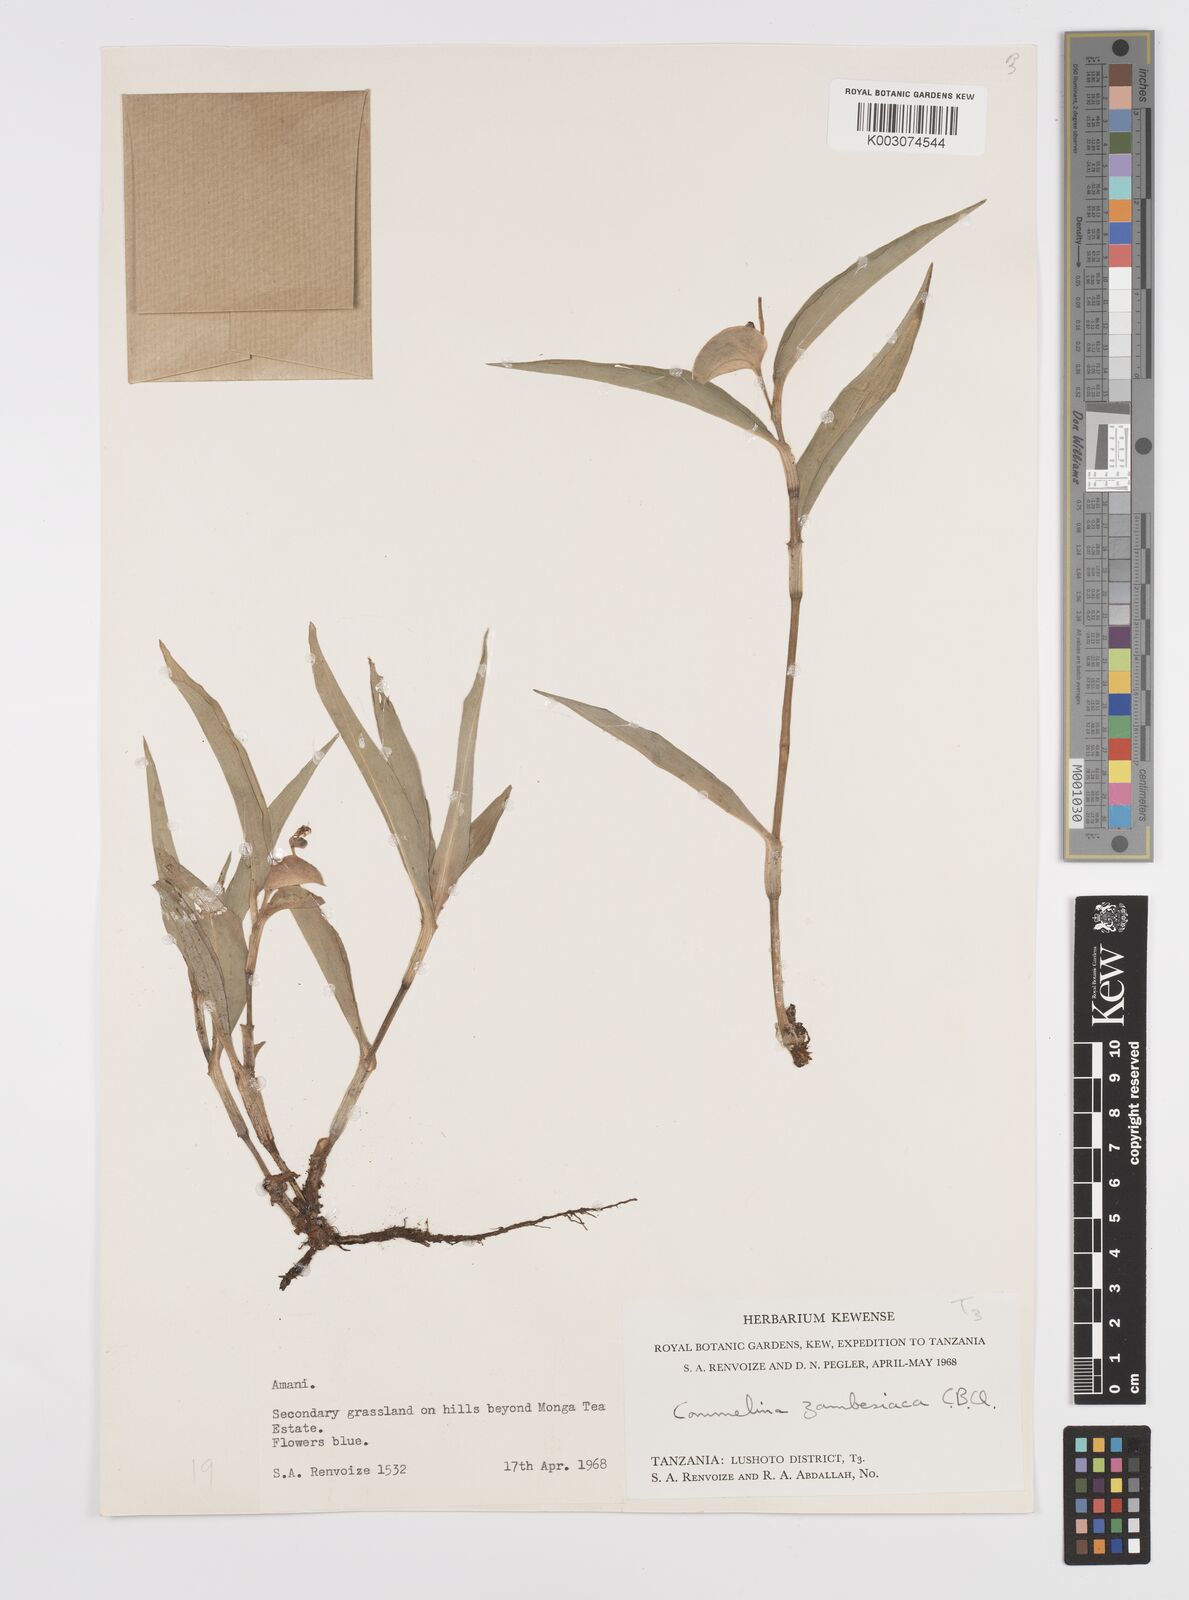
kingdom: Plantae
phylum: Tracheophyta
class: Liliopsida
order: Commelinales
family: Commelinaceae
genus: Commelina
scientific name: Commelina zambesica
